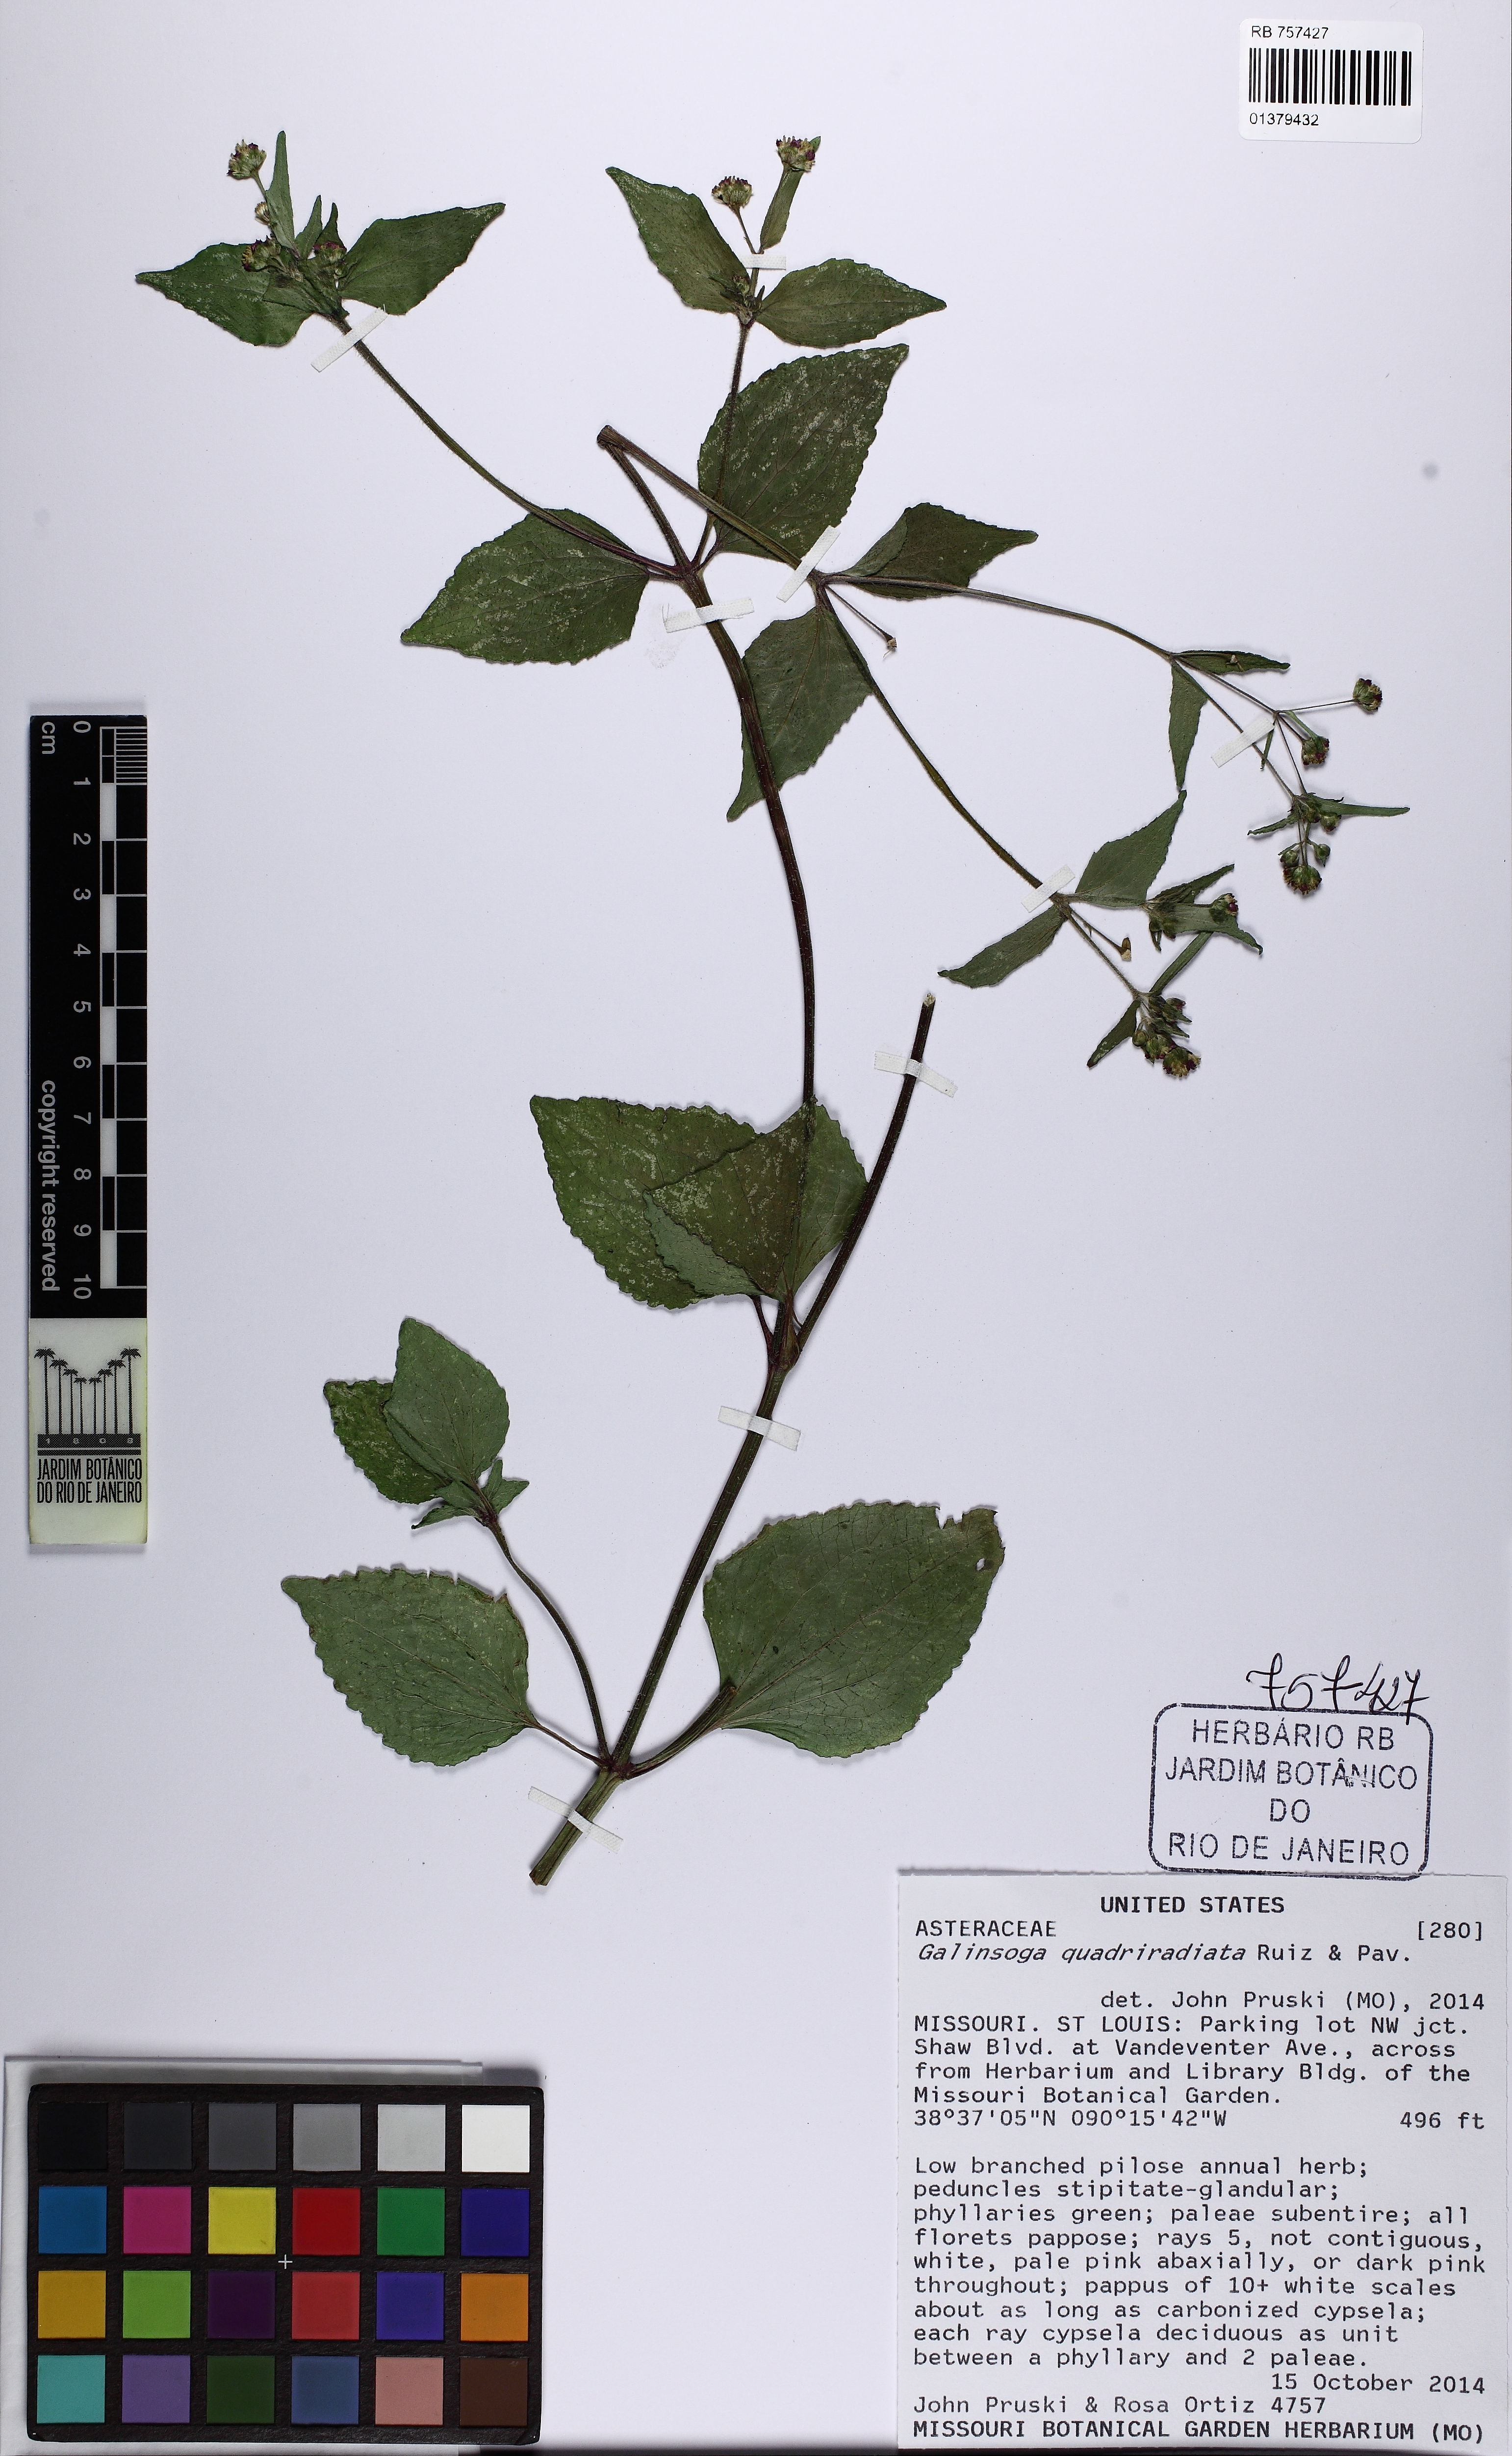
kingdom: Plantae
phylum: Tracheophyta
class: Magnoliopsida
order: Asterales
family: Asteraceae
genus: Galinsoga
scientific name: Galinsoga quadriradiata
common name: Shaggy soldier
